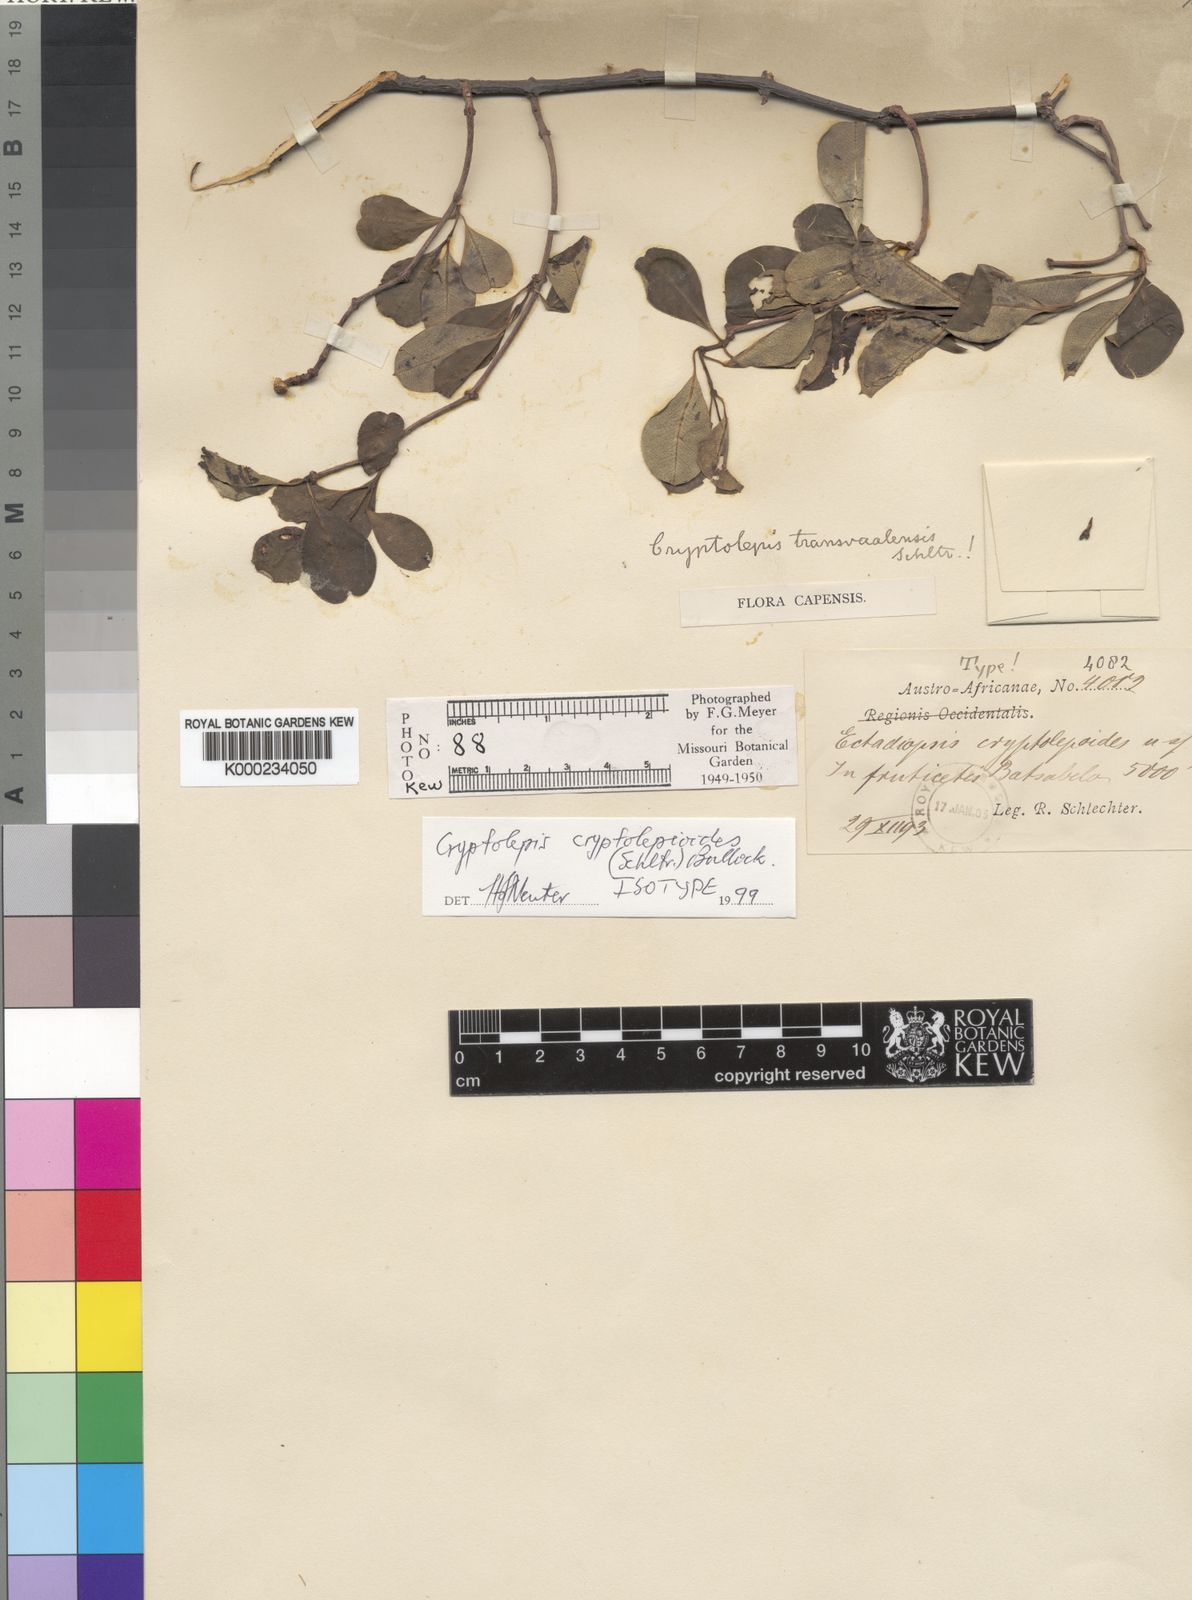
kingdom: Plantae
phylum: Tracheophyta
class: Magnoliopsida
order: Gentianales
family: Apocynaceae
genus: Cryptolepis
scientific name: Cryptolepis cryptolepioides
